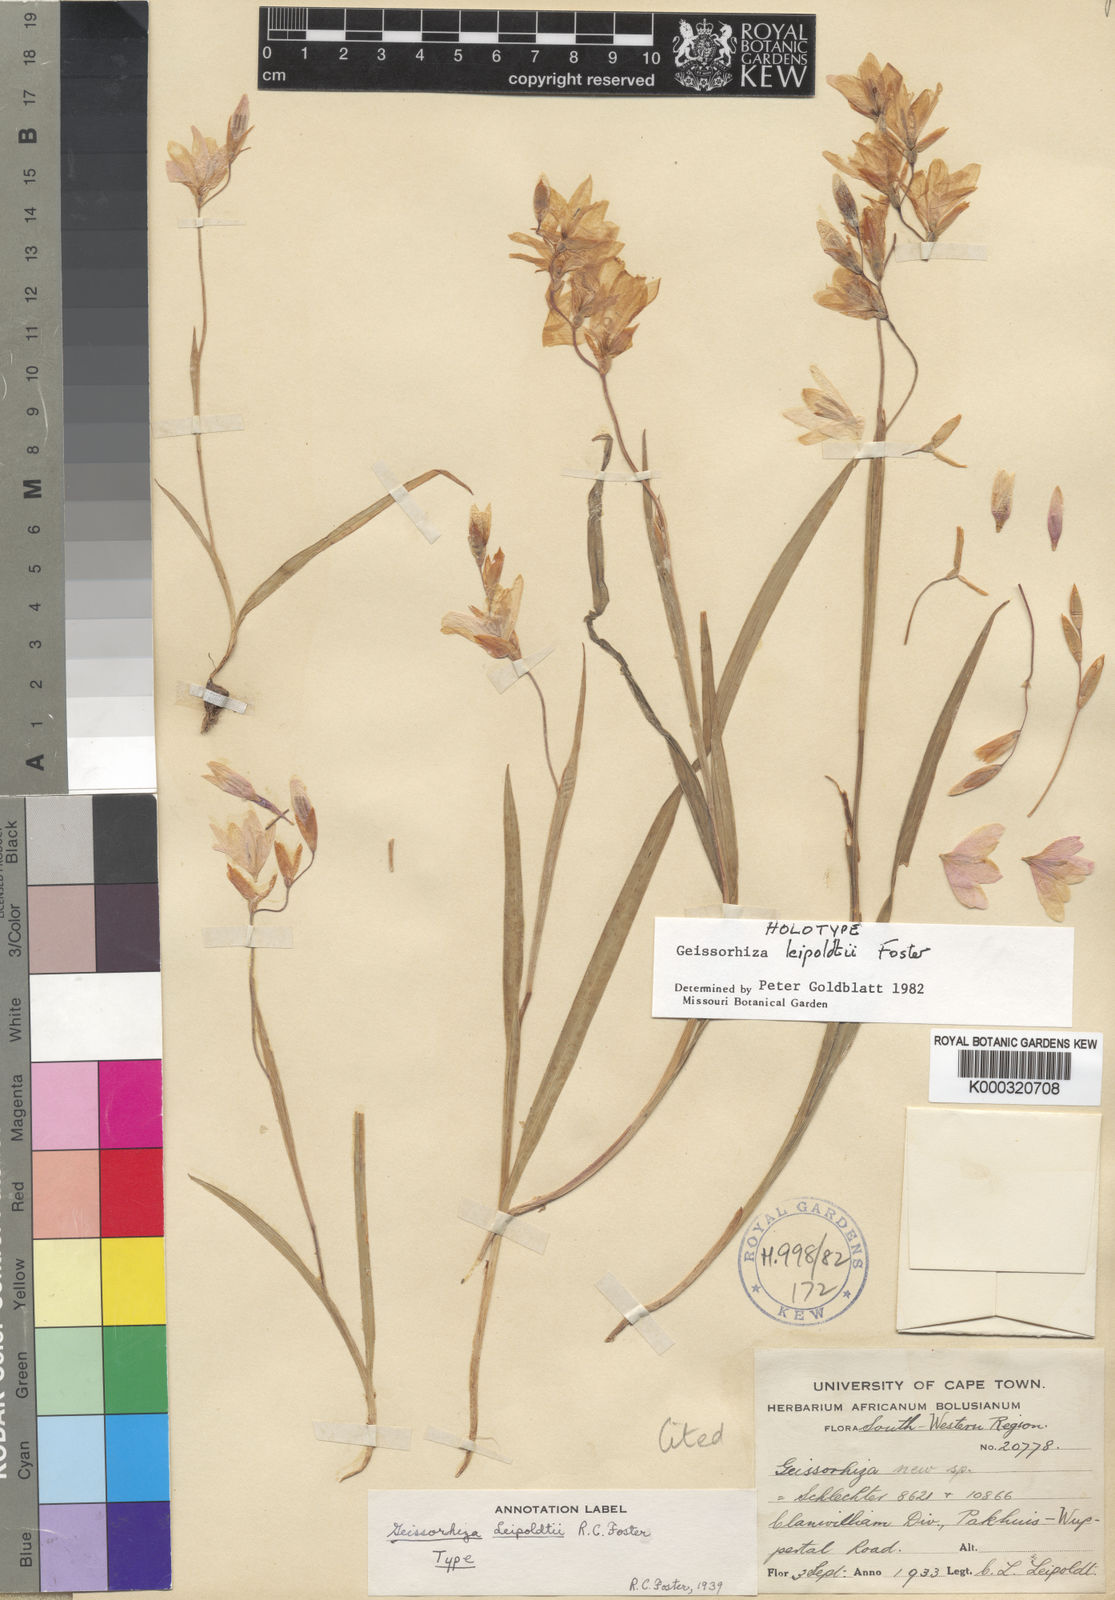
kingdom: Plantae
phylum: Tracheophyta
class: Liliopsida
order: Asparagales
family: Iridaceae
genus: Geissorhiza
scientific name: Geissorhiza leipoldtii
